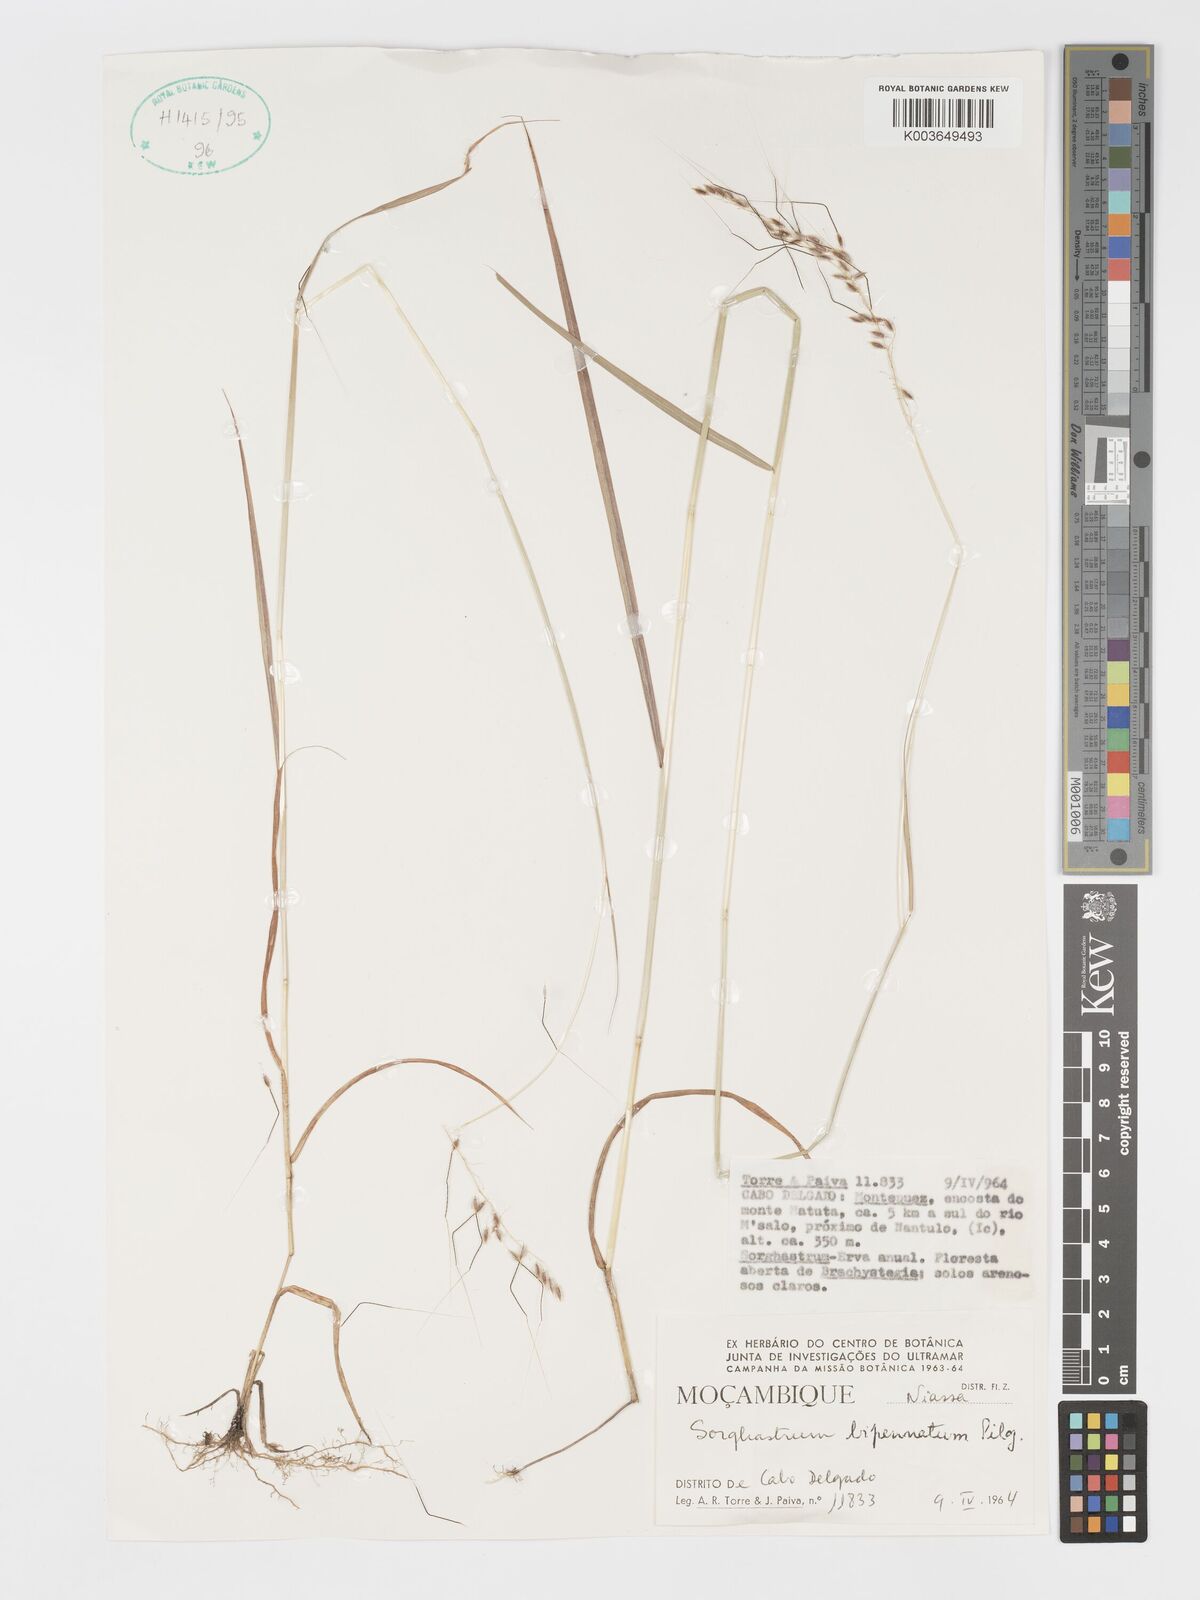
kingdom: Plantae
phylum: Tracheophyta
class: Liliopsida
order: Poales
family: Poaceae
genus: Sorghastrum
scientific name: Sorghastrum incompletum
